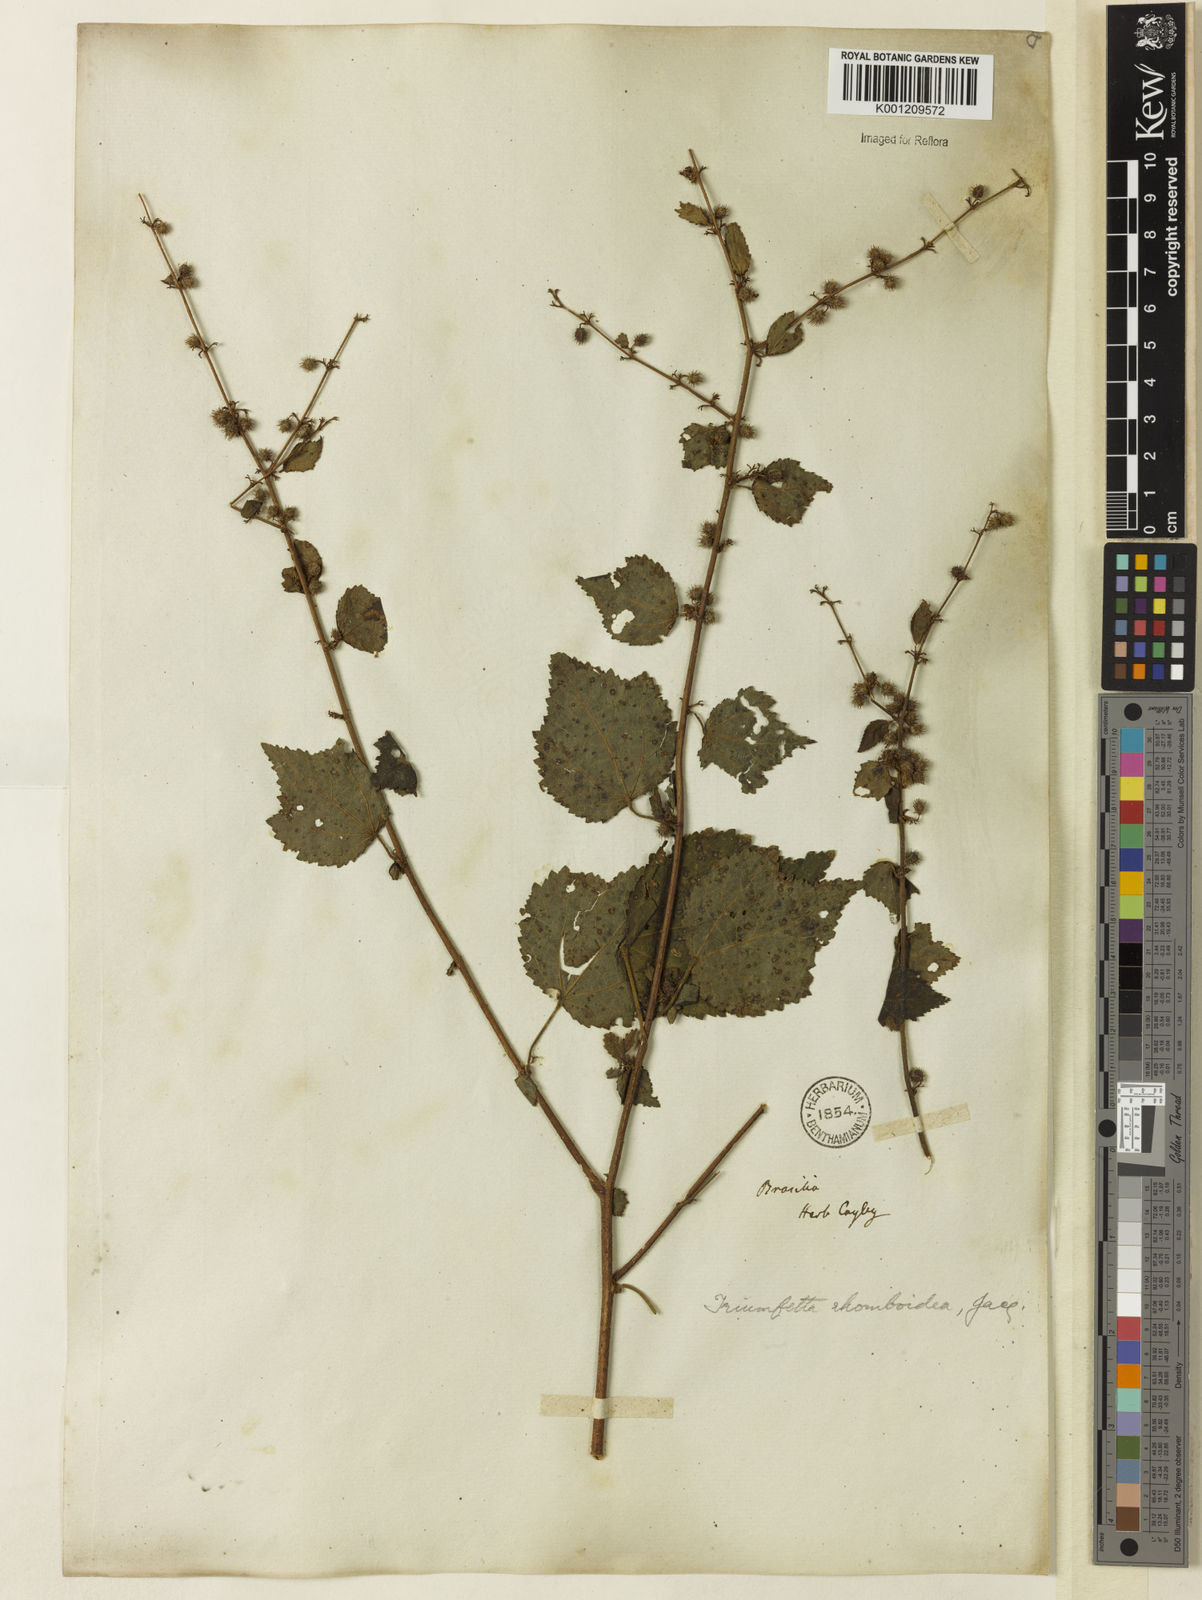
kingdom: Plantae
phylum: Tracheophyta
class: Magnoliopsida
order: Malvales
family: Malvaceae
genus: Triumfetta
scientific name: Triumfetta rhomboidea
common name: Diamond burbark
